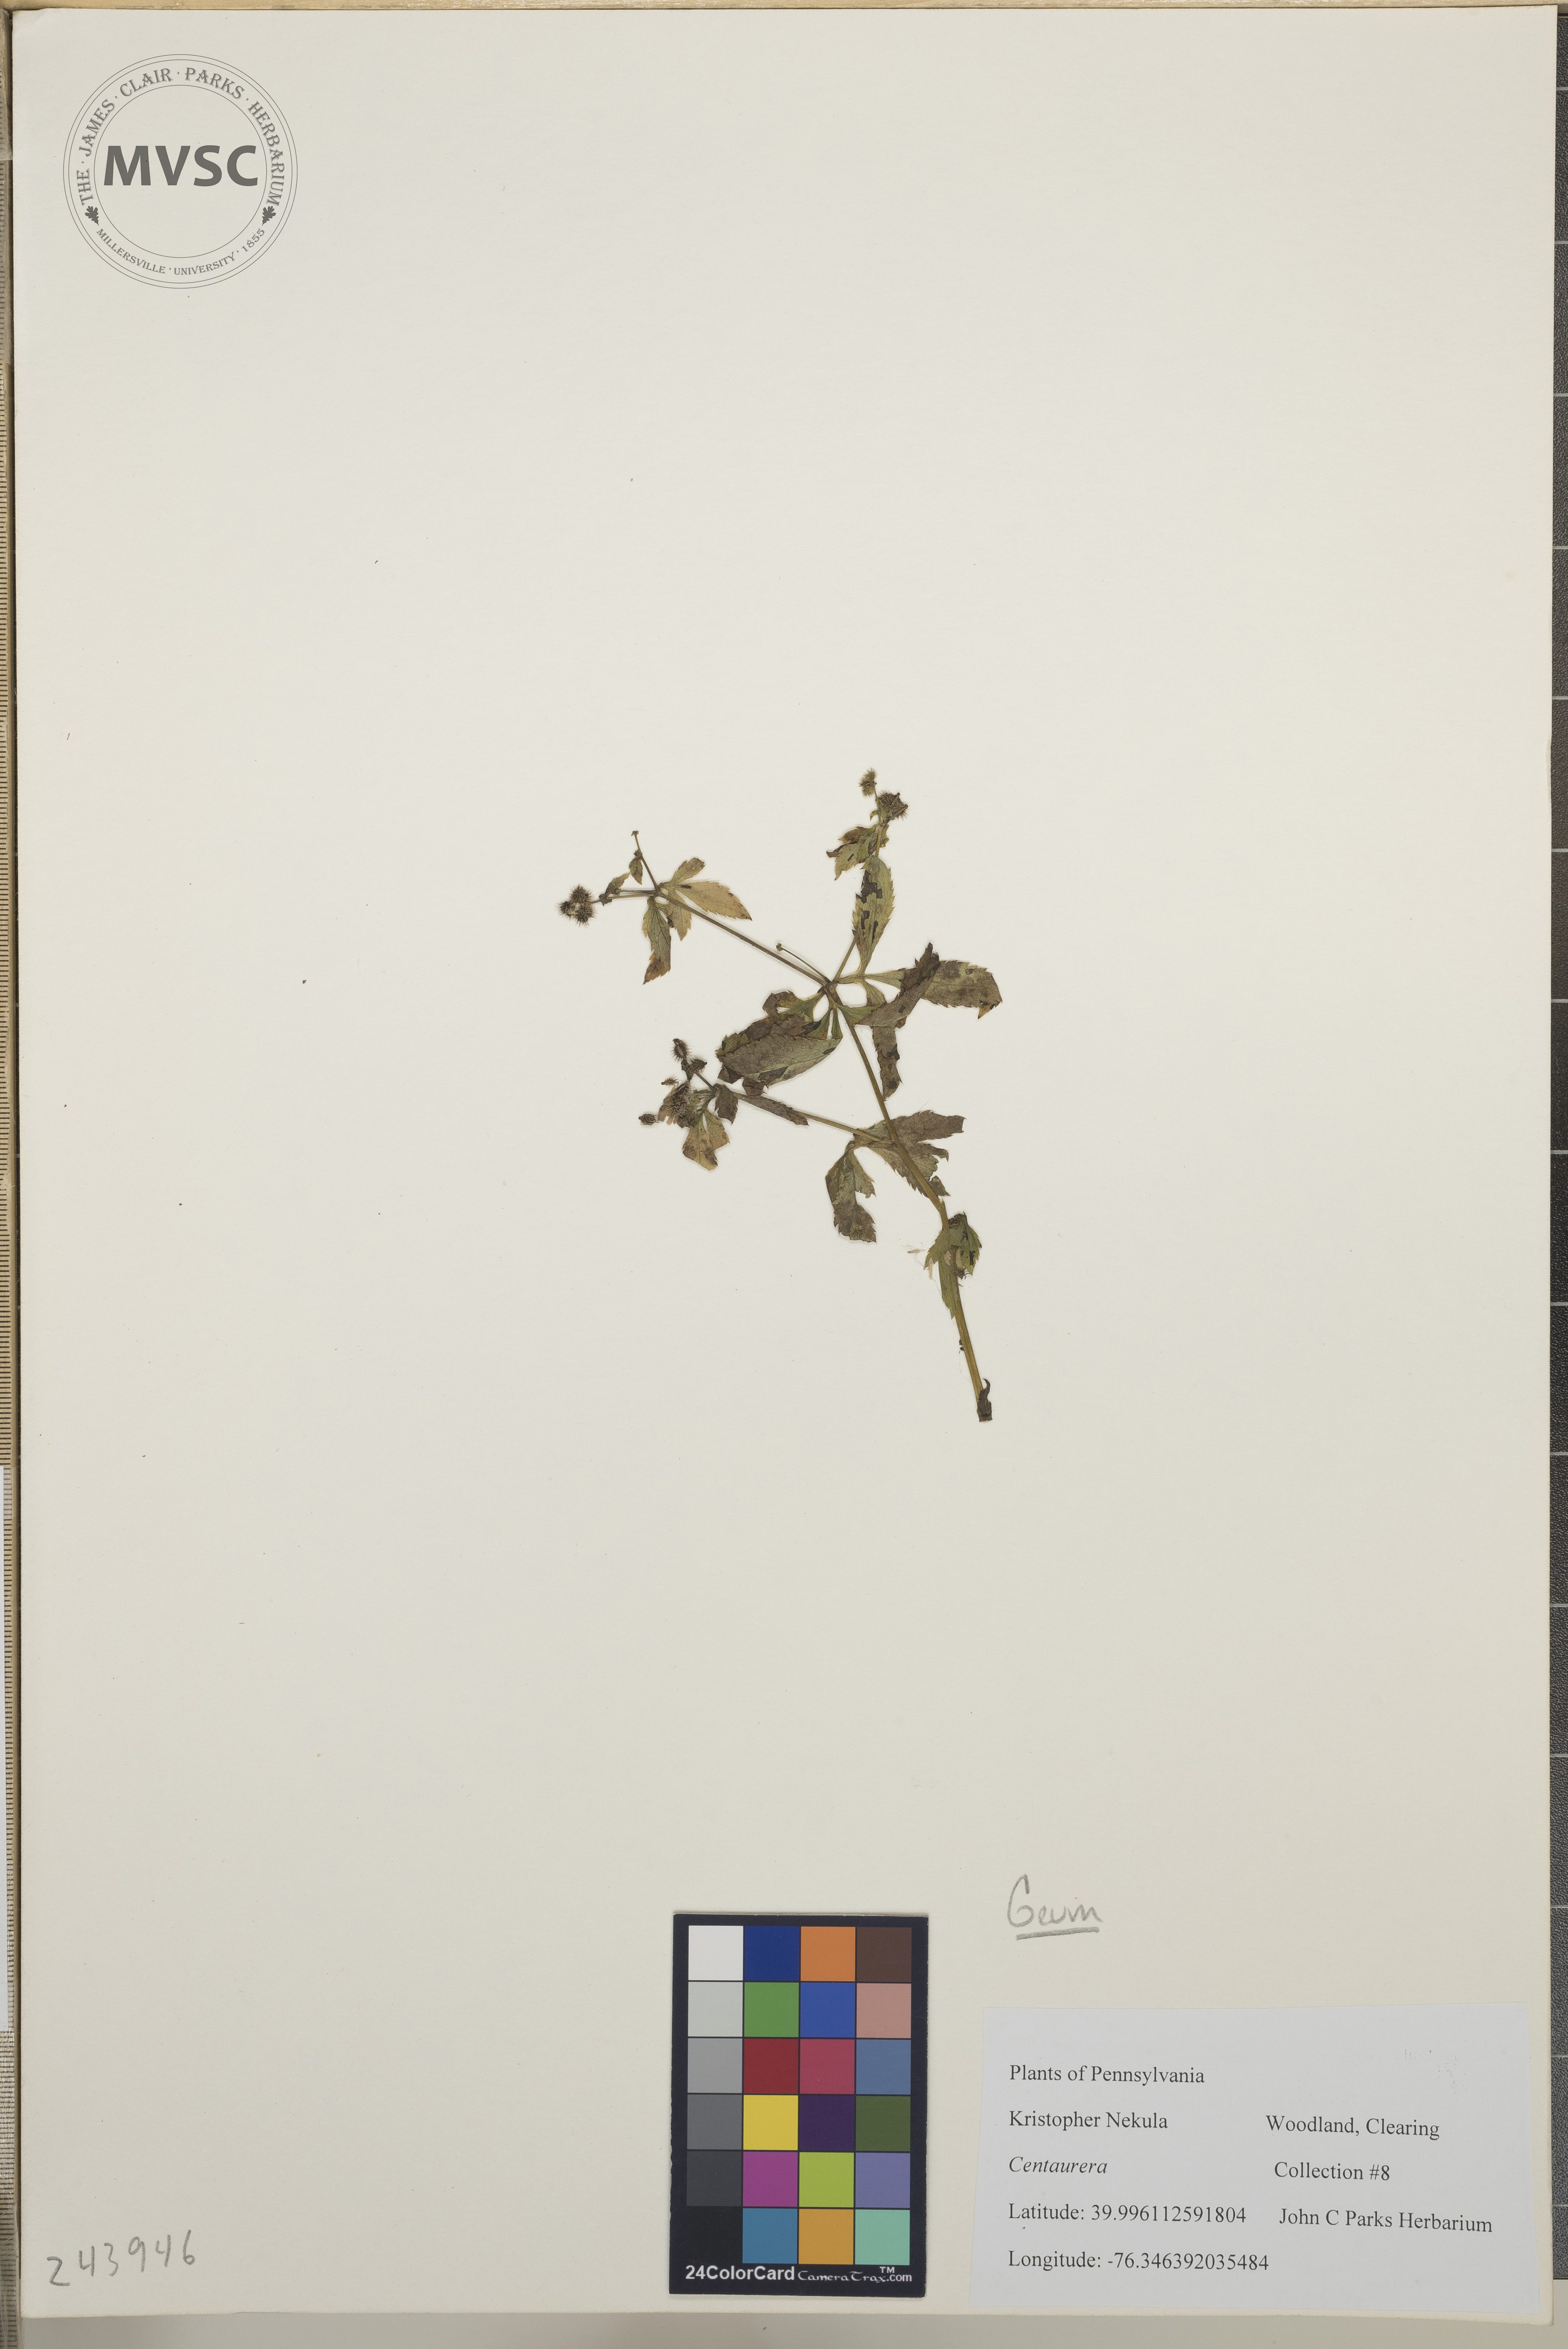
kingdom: Plantae
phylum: Tracheophyta
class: Magnoliopsida
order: Apiales
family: Apiaceae
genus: Sanicula
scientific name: Sanicula canadensis
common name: Canada sanicle
